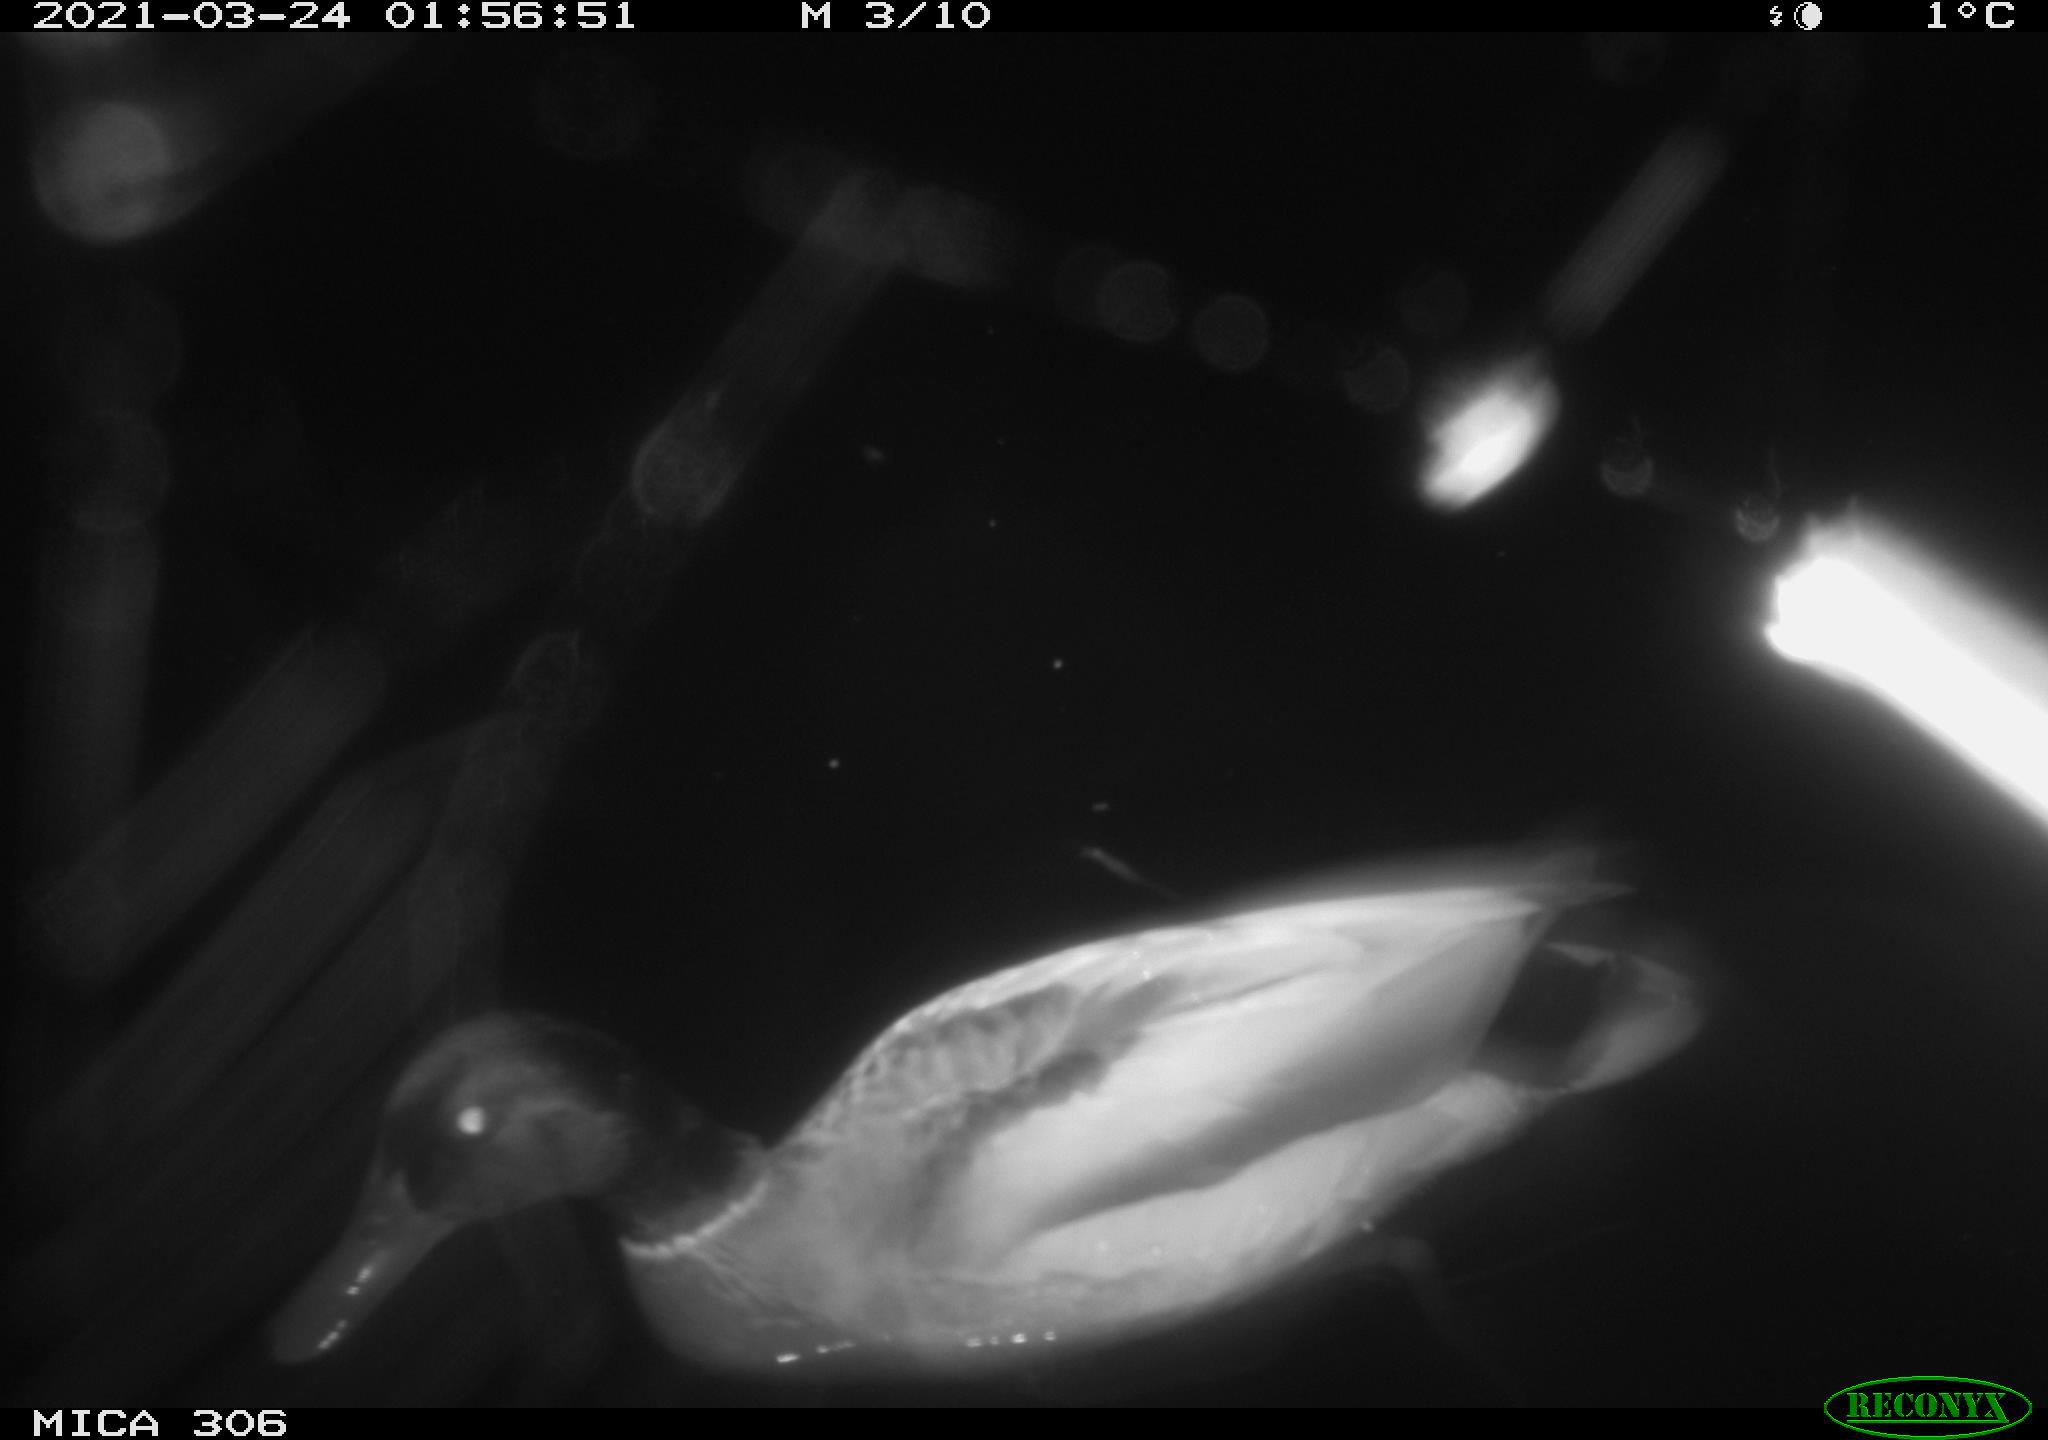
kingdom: Animalia
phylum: Chordata
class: Aves
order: Anseriformes
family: Anatidae
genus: Anas
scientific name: Anas platyrhynchos
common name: Mallard
